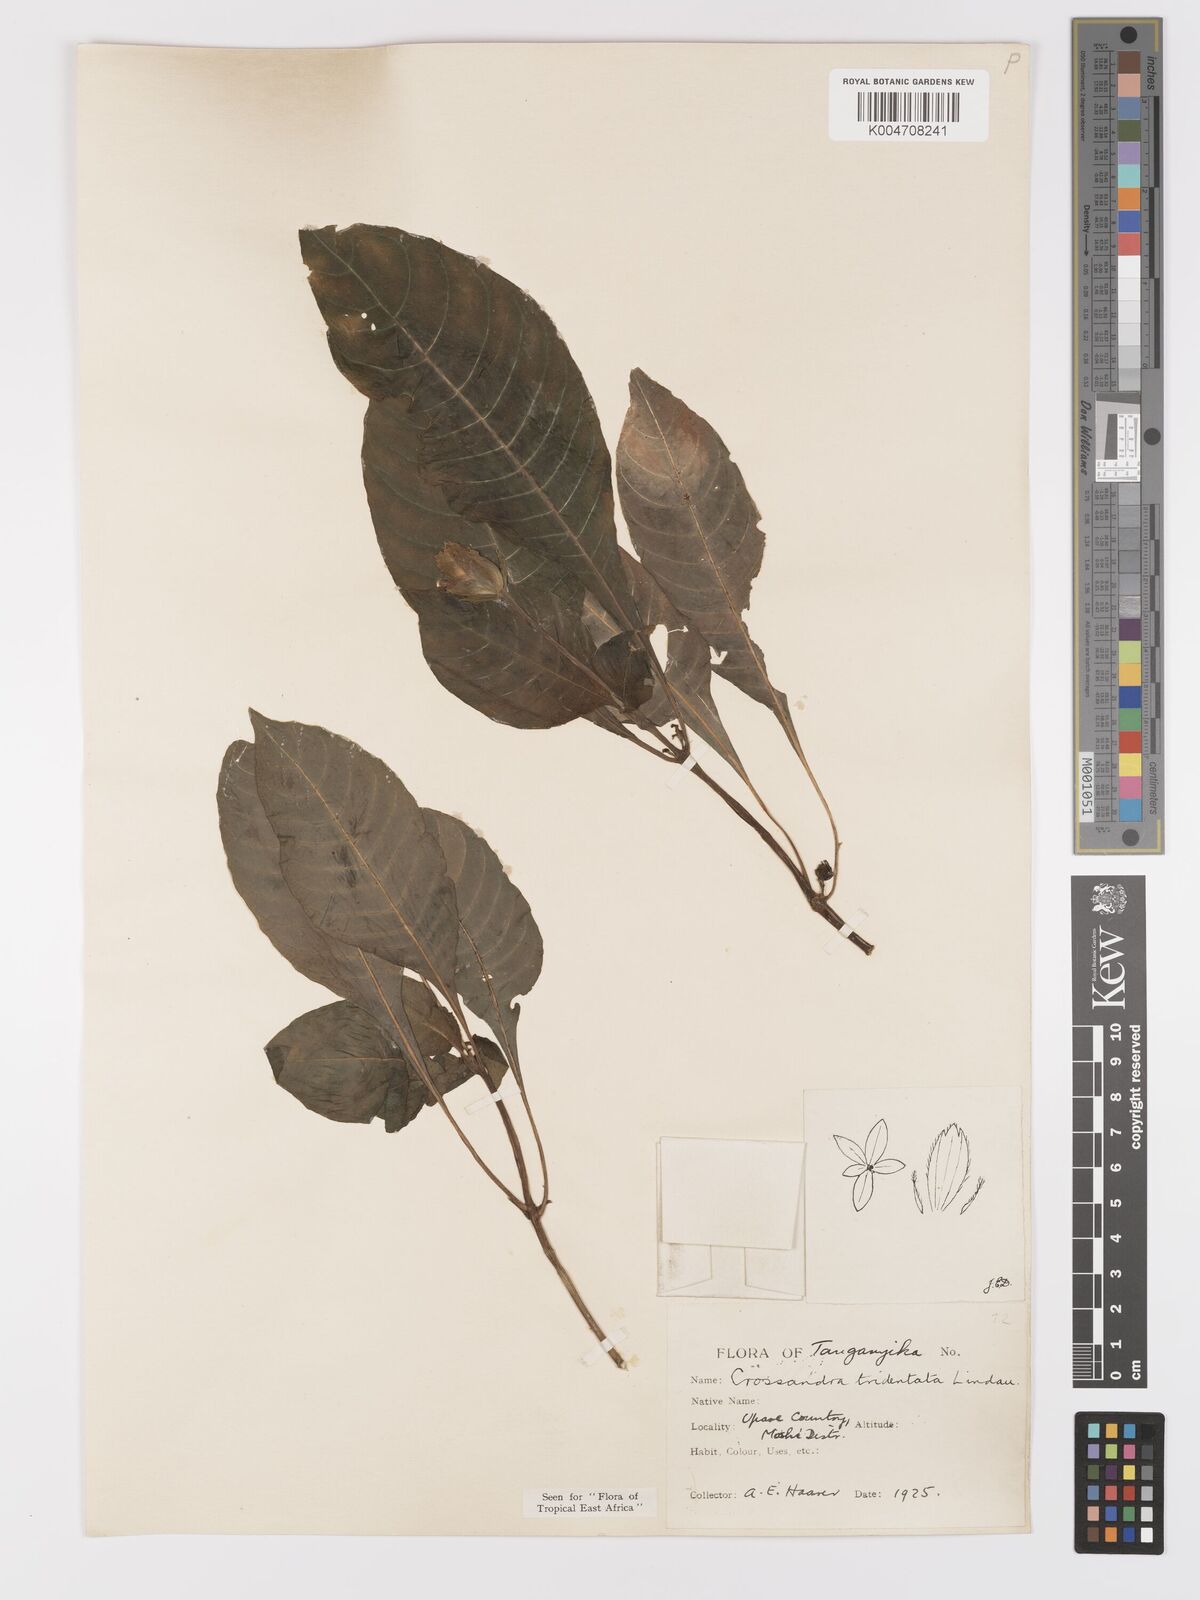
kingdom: Plantae
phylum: Tracheophyta
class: Magnoliopsida
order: Lamiales
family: Acanthaceae
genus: Crossandra
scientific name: Crossandra tridentata
